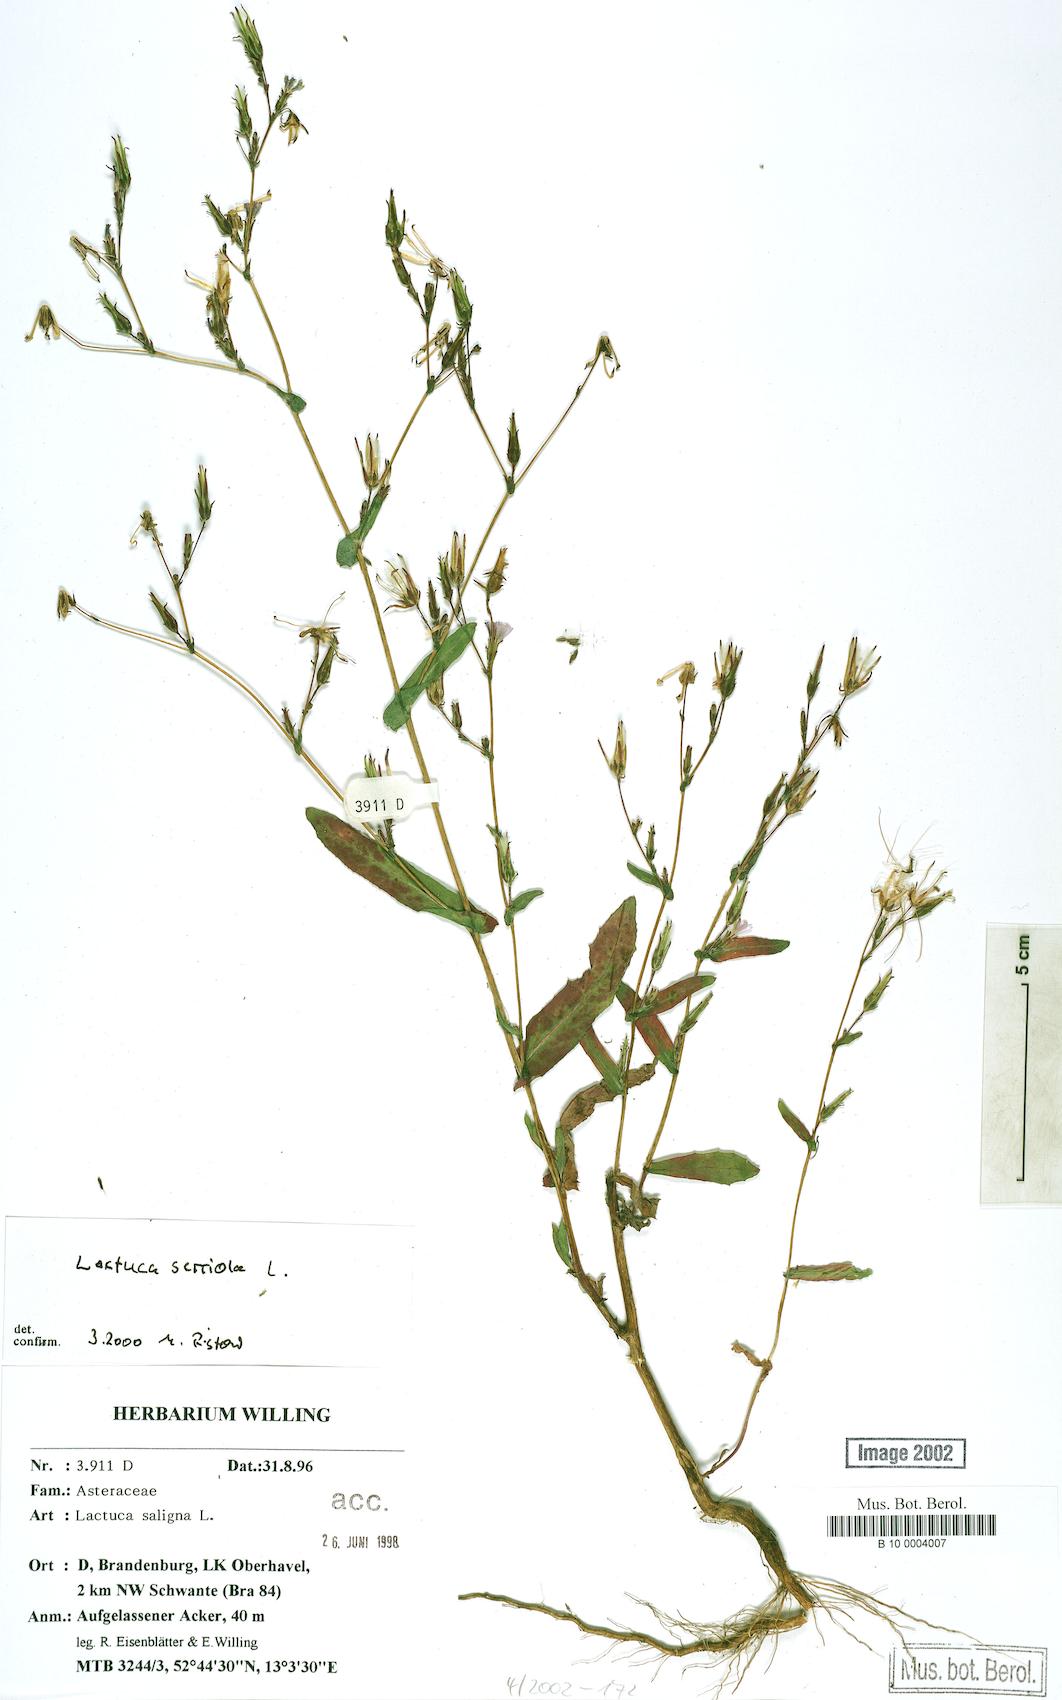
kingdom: Plantae
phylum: Tracheophyta
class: Magnoliopsida
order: Asterales
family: Asteraceae
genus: Lactuca
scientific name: Lactuca serriola
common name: Prickly lettuce
